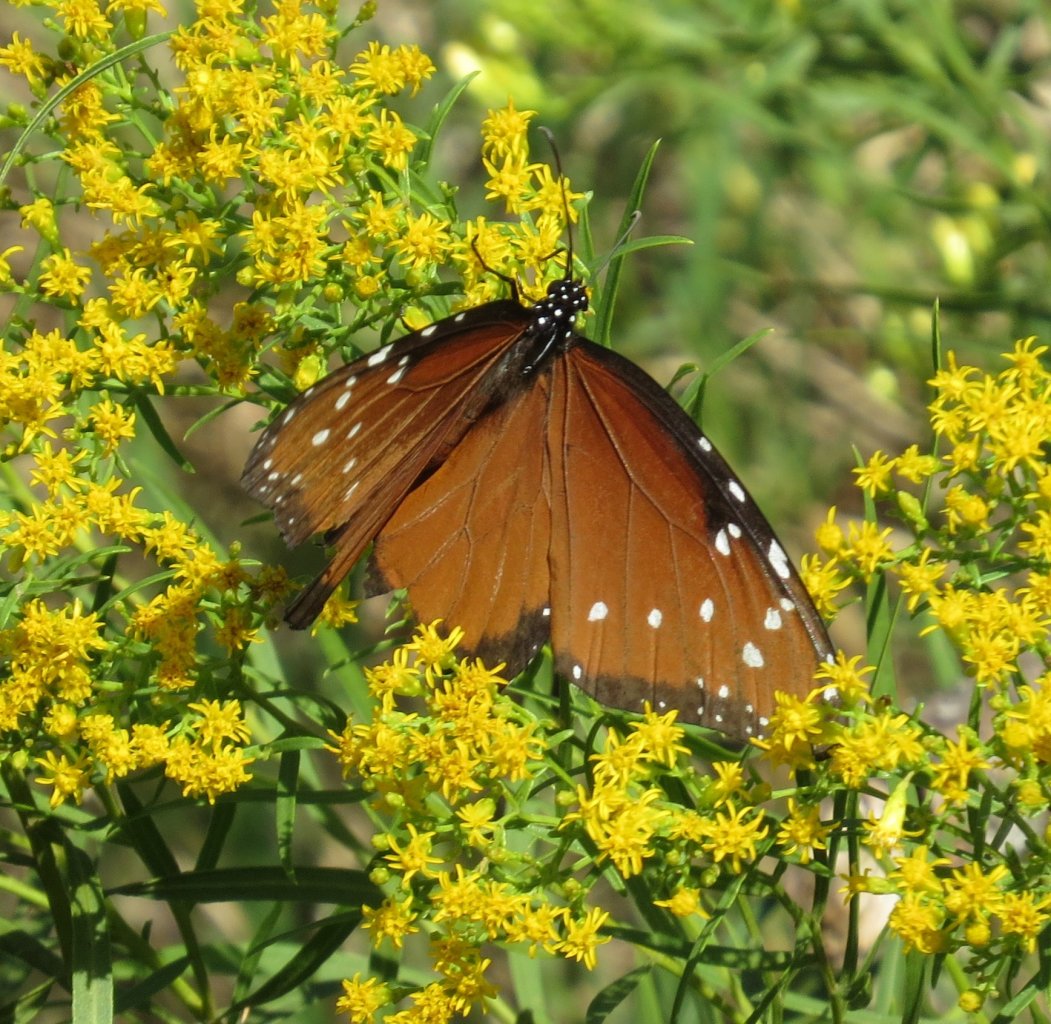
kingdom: Animalia
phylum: Arthropoda
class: Insecta
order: Lepidoptera
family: Nymphalidae
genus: Danaus
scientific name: Danaus gilippus
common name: Queen
